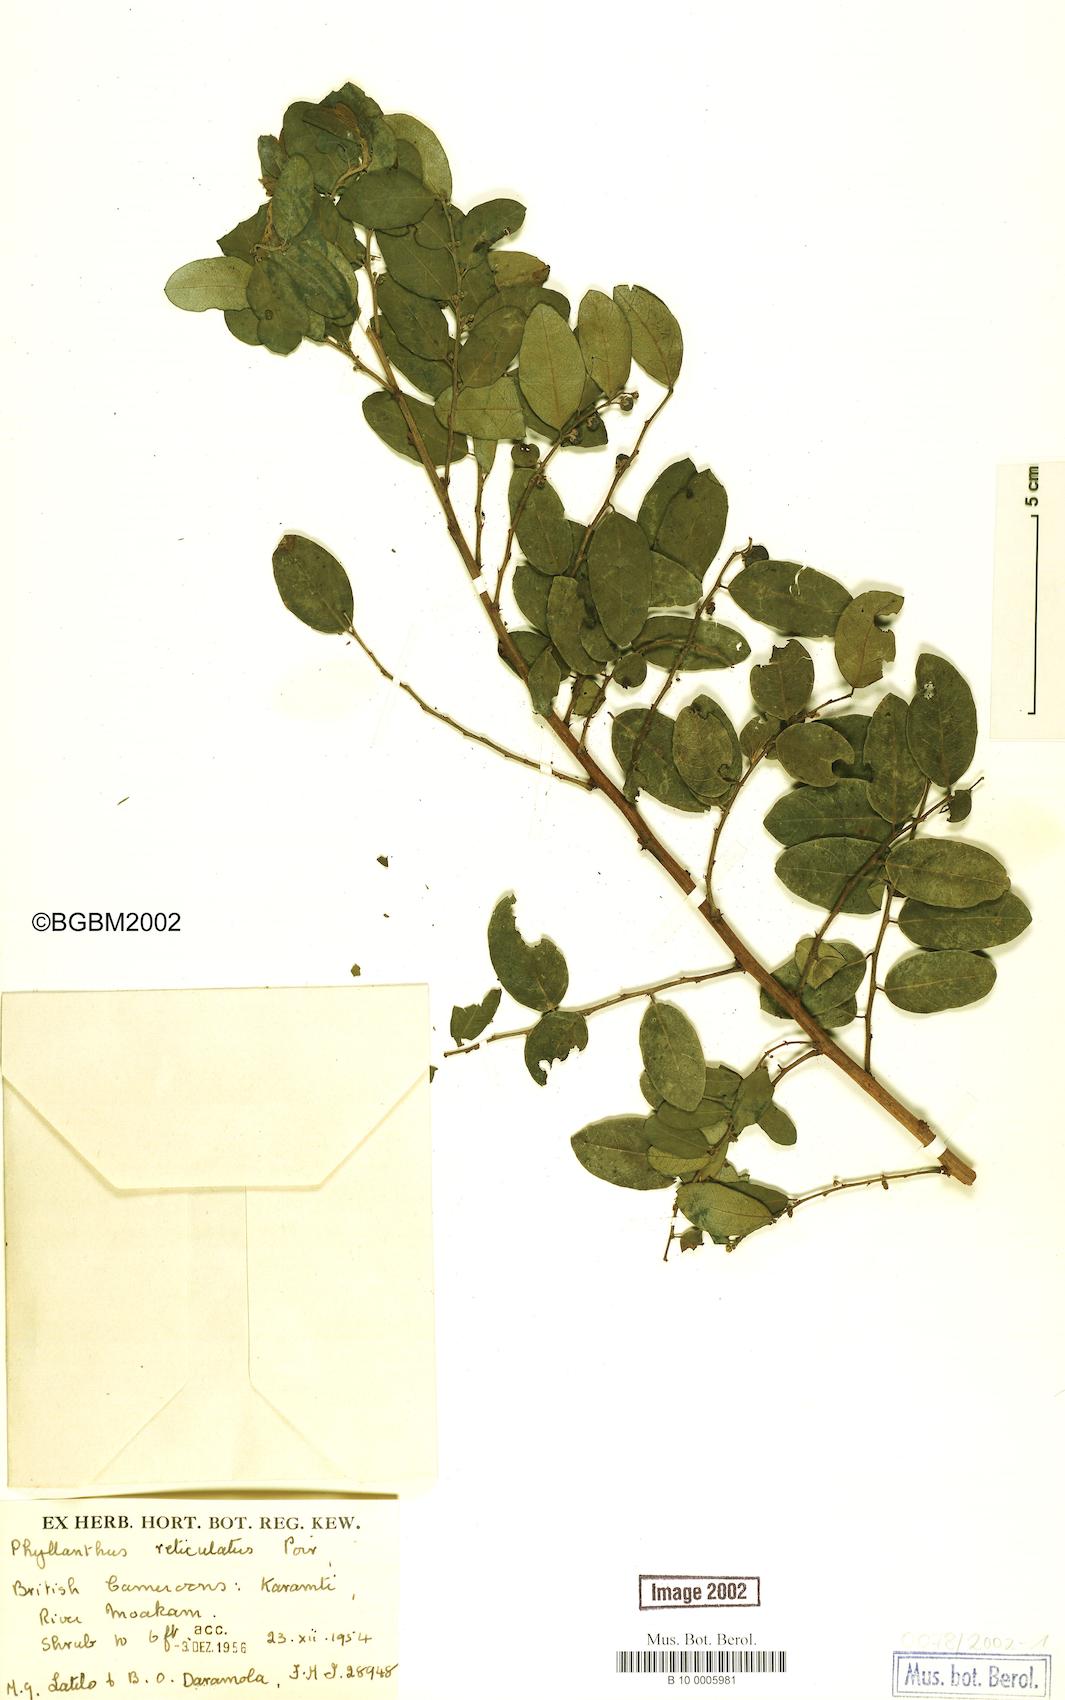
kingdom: Plantae
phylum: Tracheophyta
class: Magnoliopsida
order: Malpighiales
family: Phyllanthaceae
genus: Phyllanthus
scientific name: Phyllanthus reticulatus
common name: Potato bush
